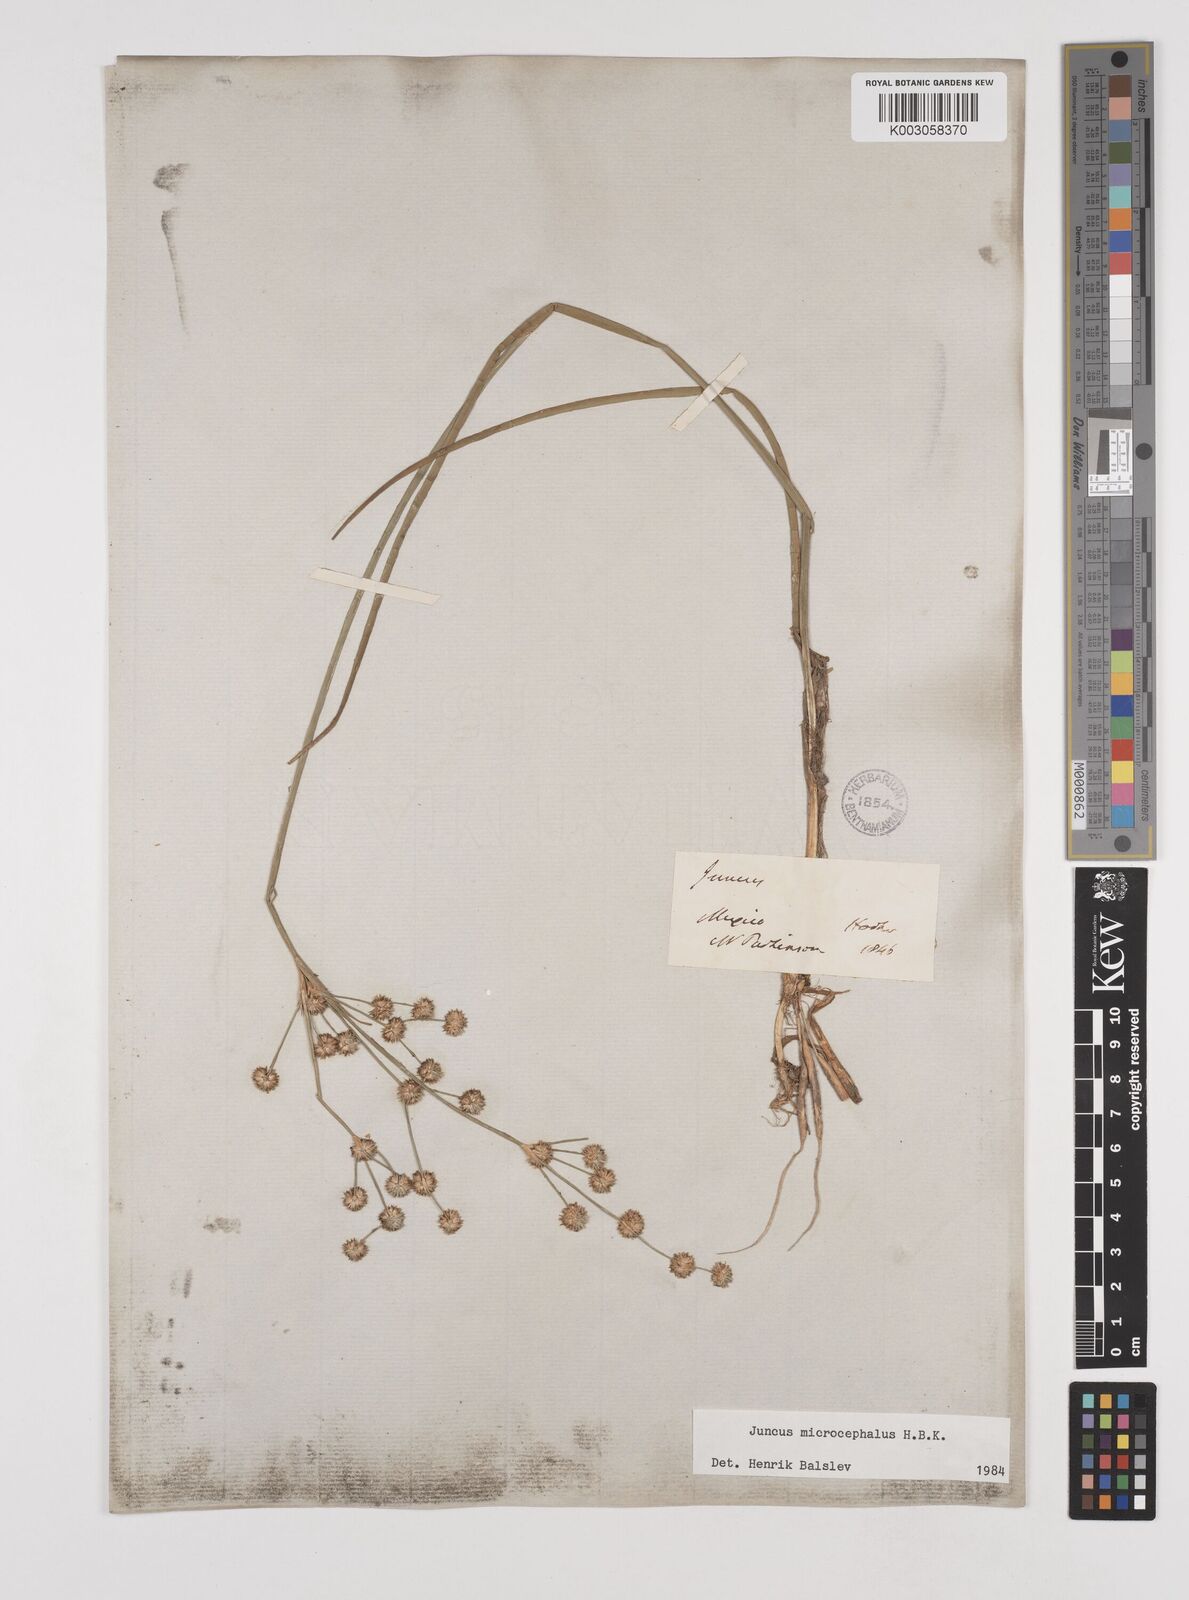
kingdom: Plantae
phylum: Tracheophyta
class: Liliopsida
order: Poales
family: Juncaceae
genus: Juncus
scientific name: Juncus microcephalus
